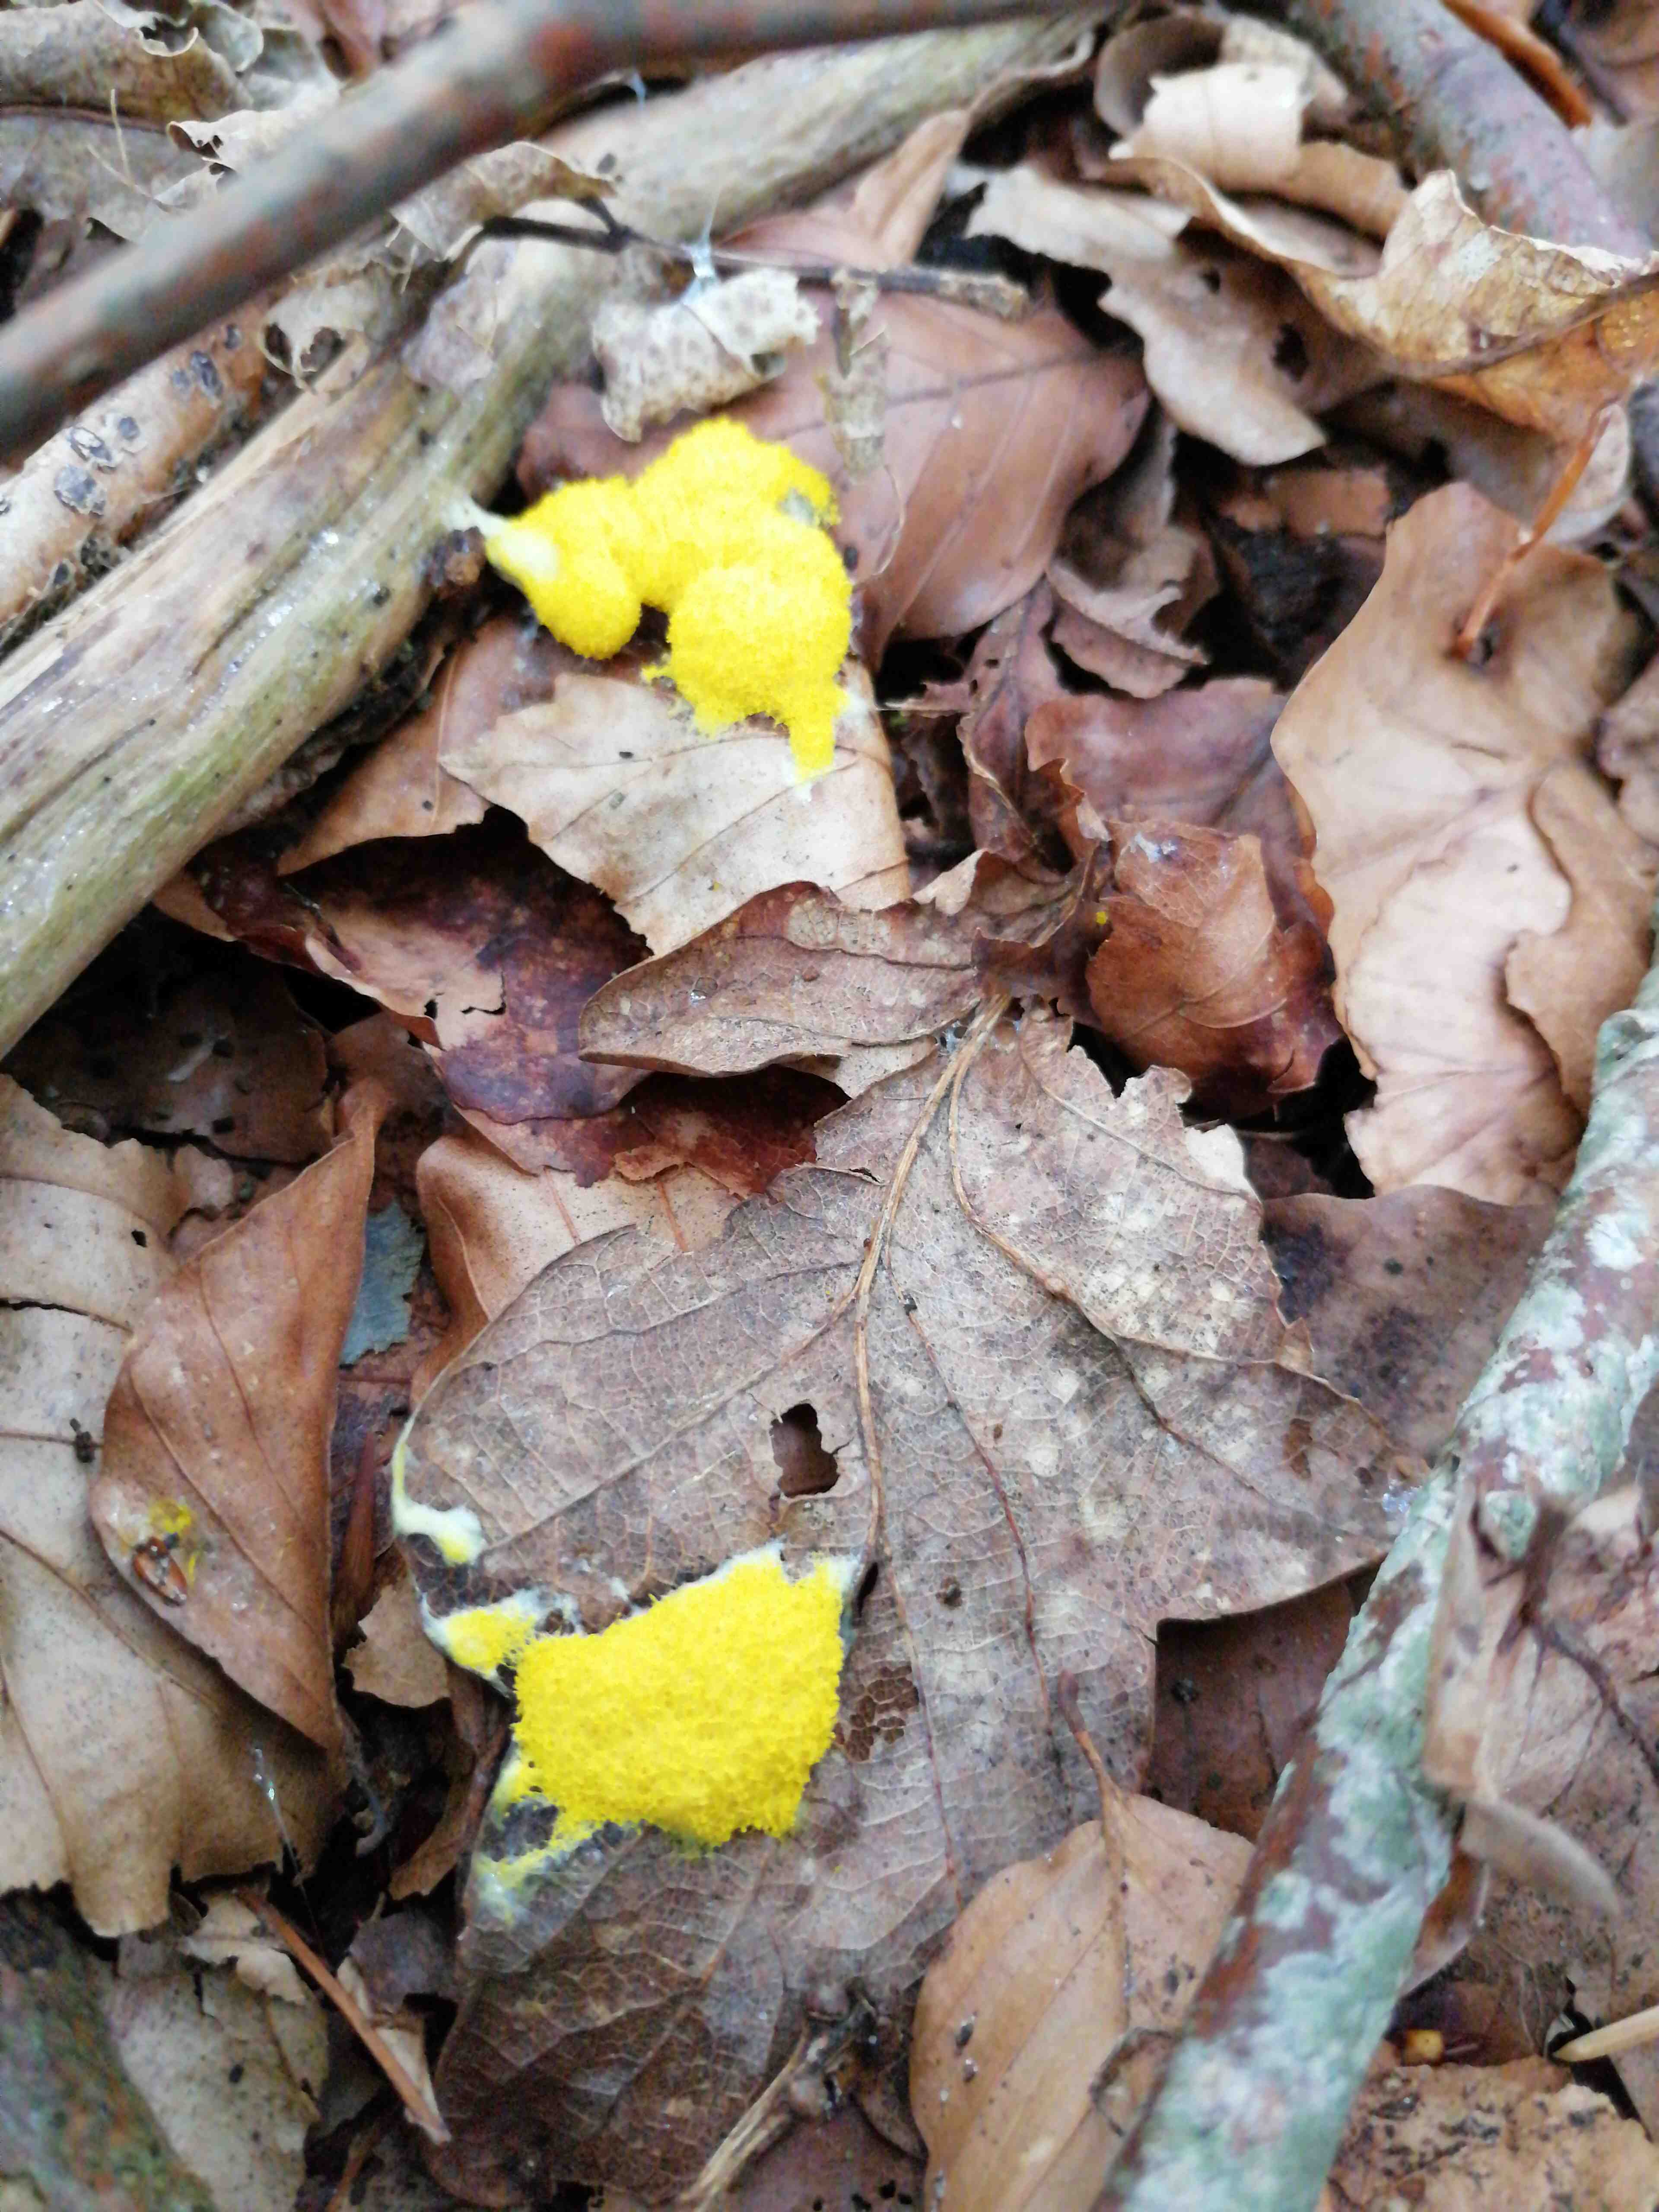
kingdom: Protozoa
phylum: Mycetozoa
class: Myxomycetes
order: Physarales
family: Physaraceae
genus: Fuligo
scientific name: Fuligo septica
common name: gul troldsmør
